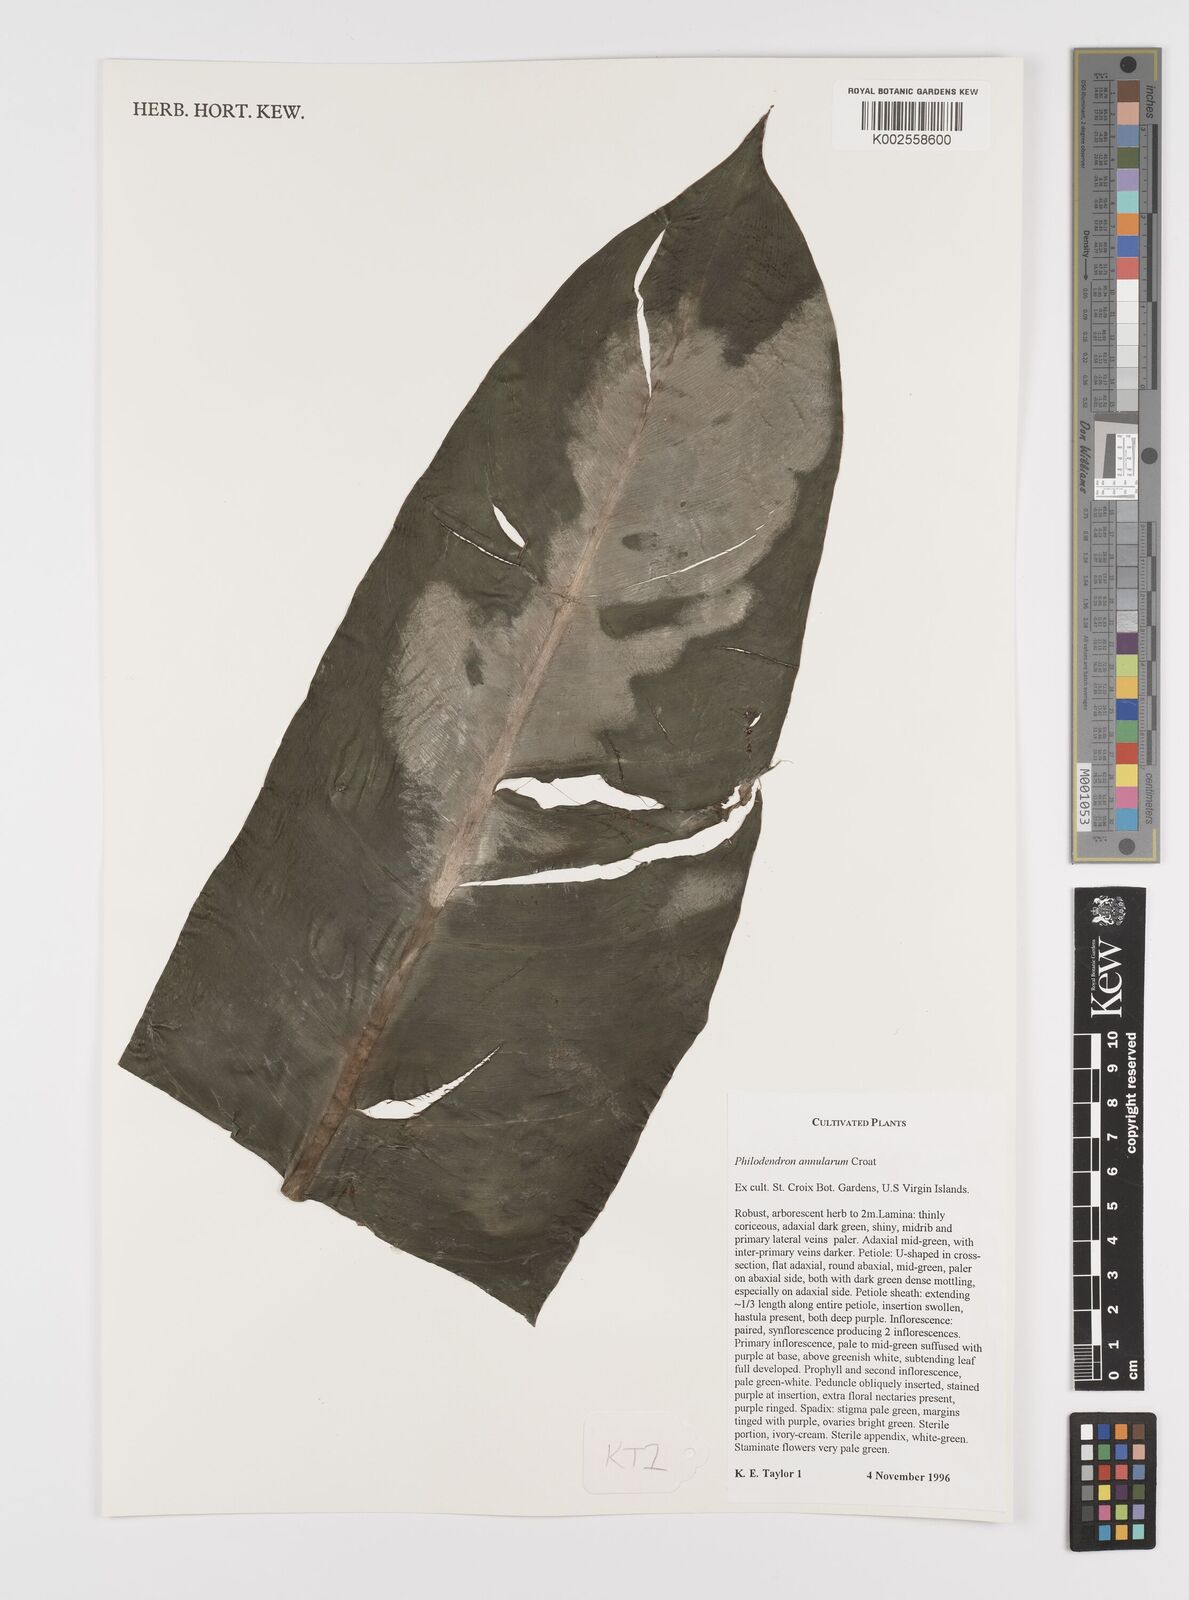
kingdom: Plantae
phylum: Tracheophyta
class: Liliopsida
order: Alismatales
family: Araceae
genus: Philodendron
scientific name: Philodendron annulatum
